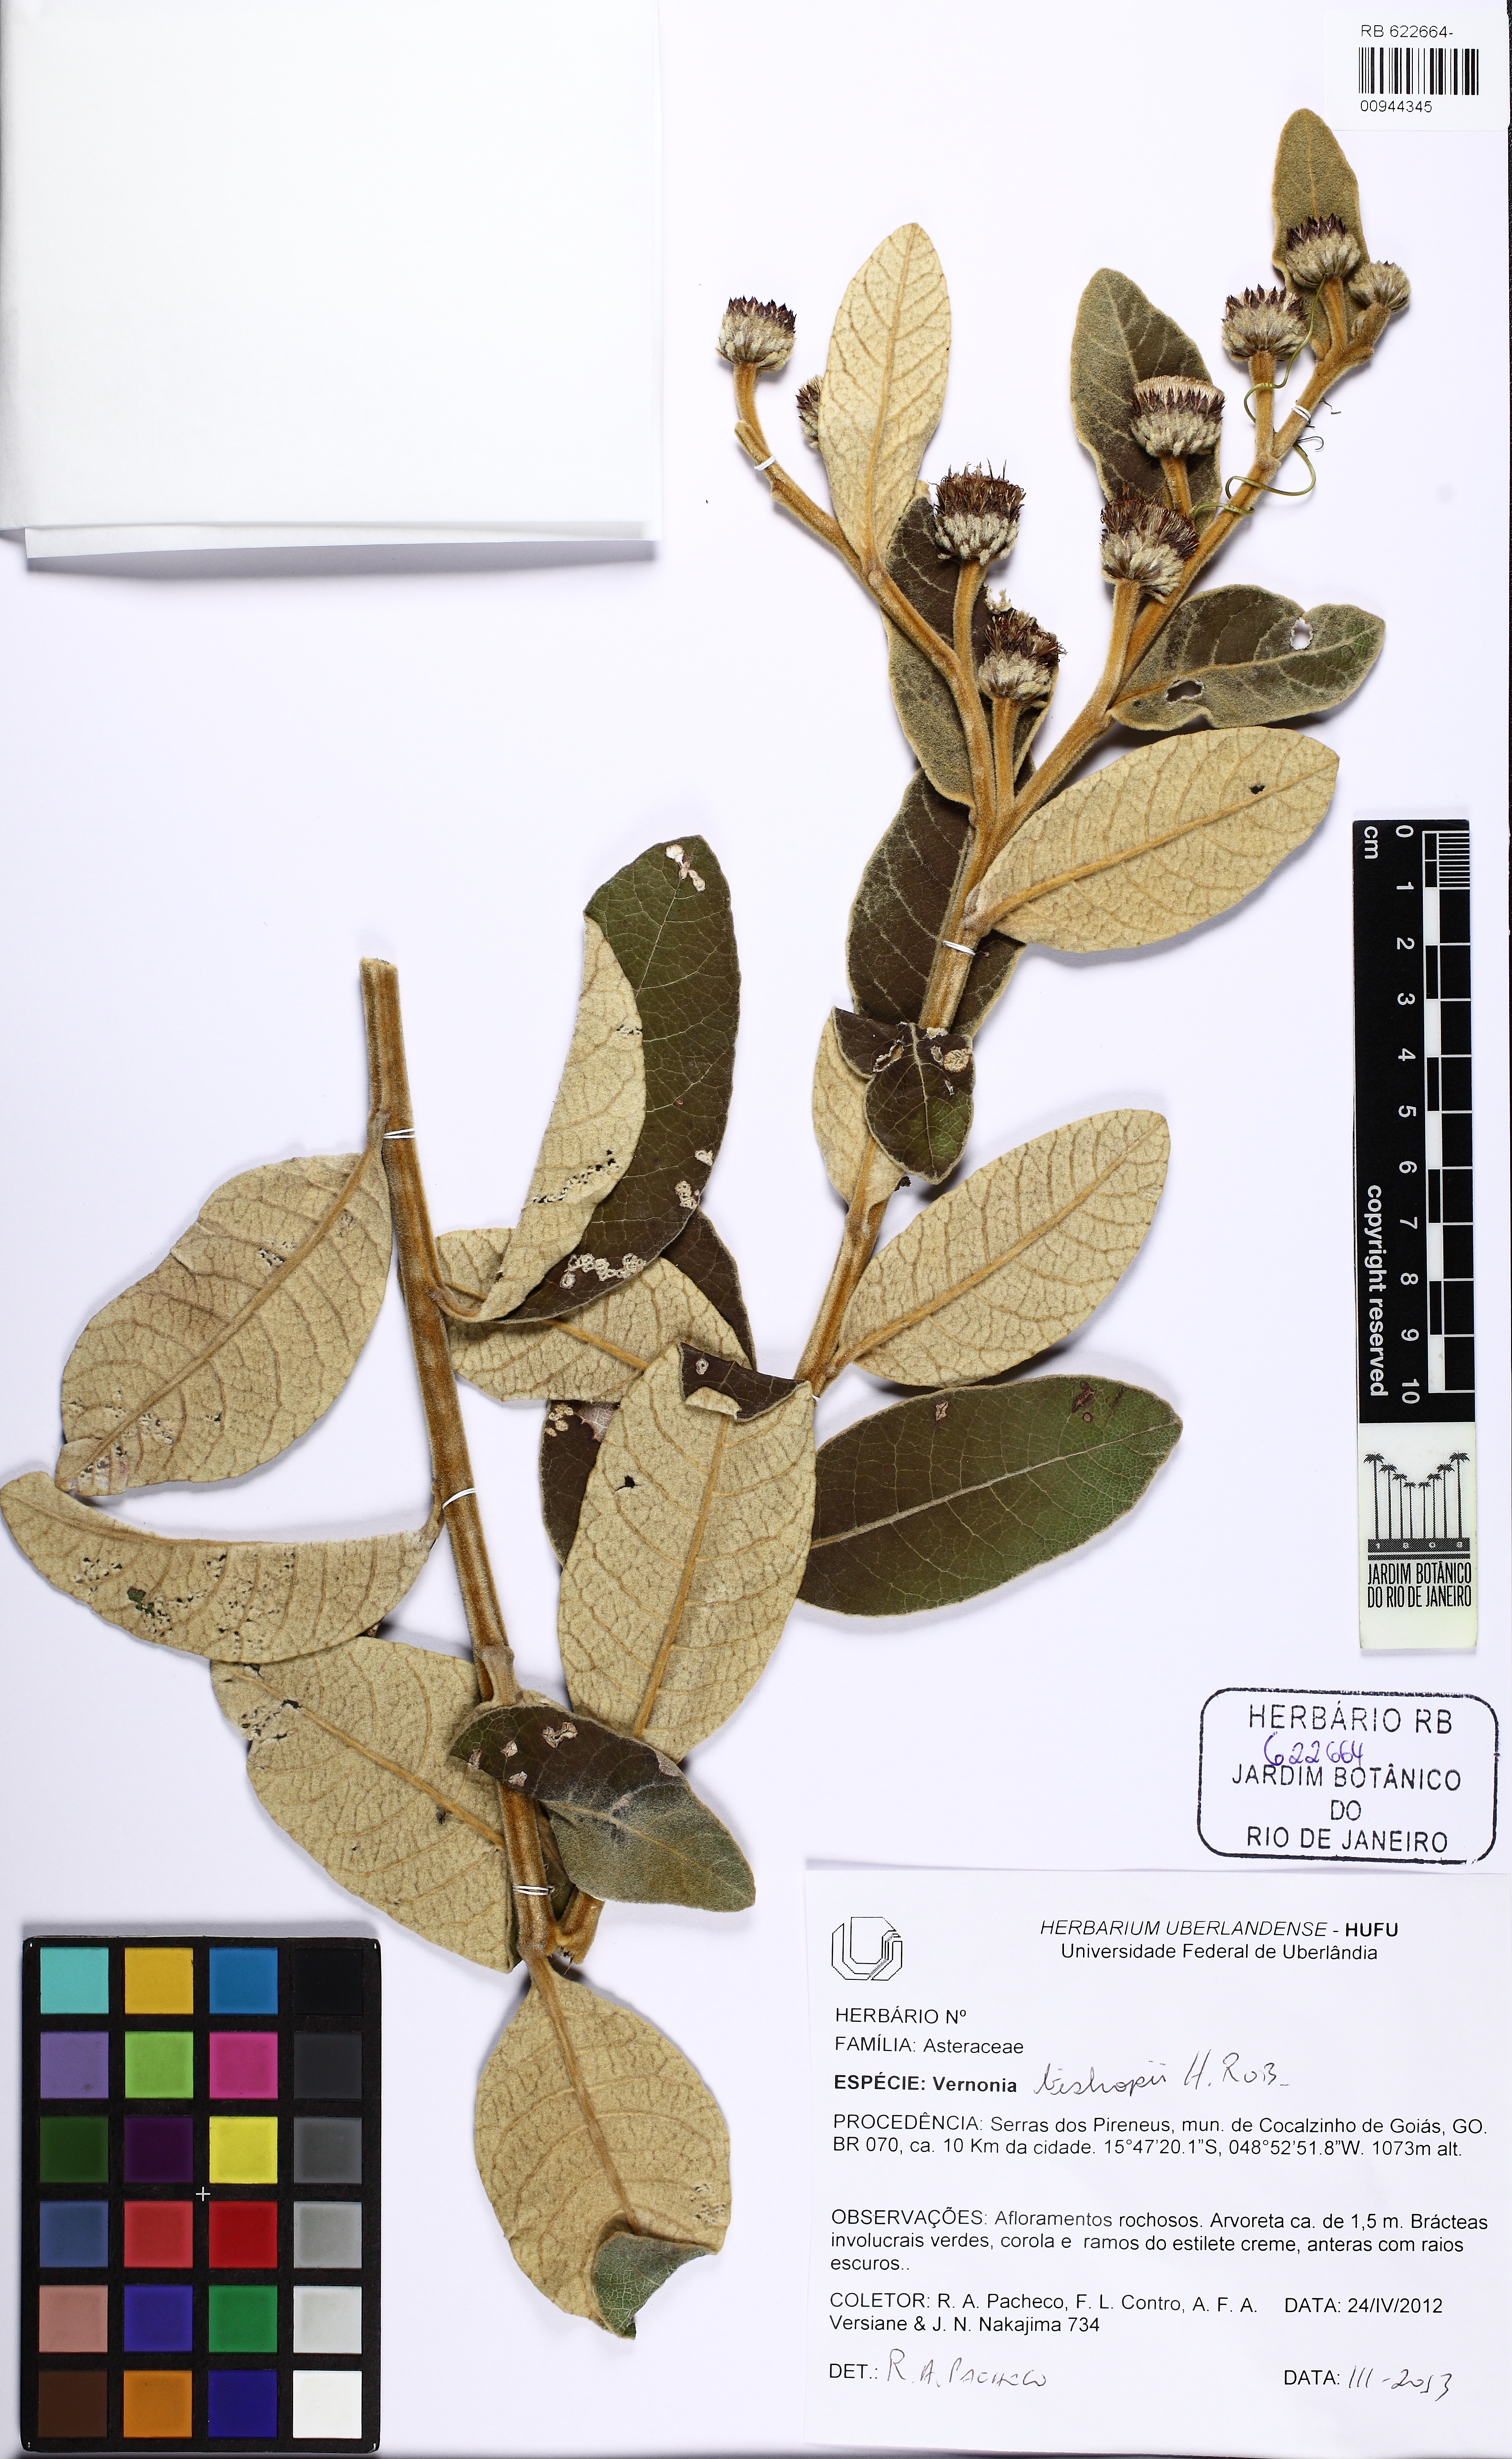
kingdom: Plantae
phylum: Tracheophyta
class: Magnoliopsida
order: Asterales
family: Asteraceae
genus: Lessingianthus
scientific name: Lessingianthus bishopii
